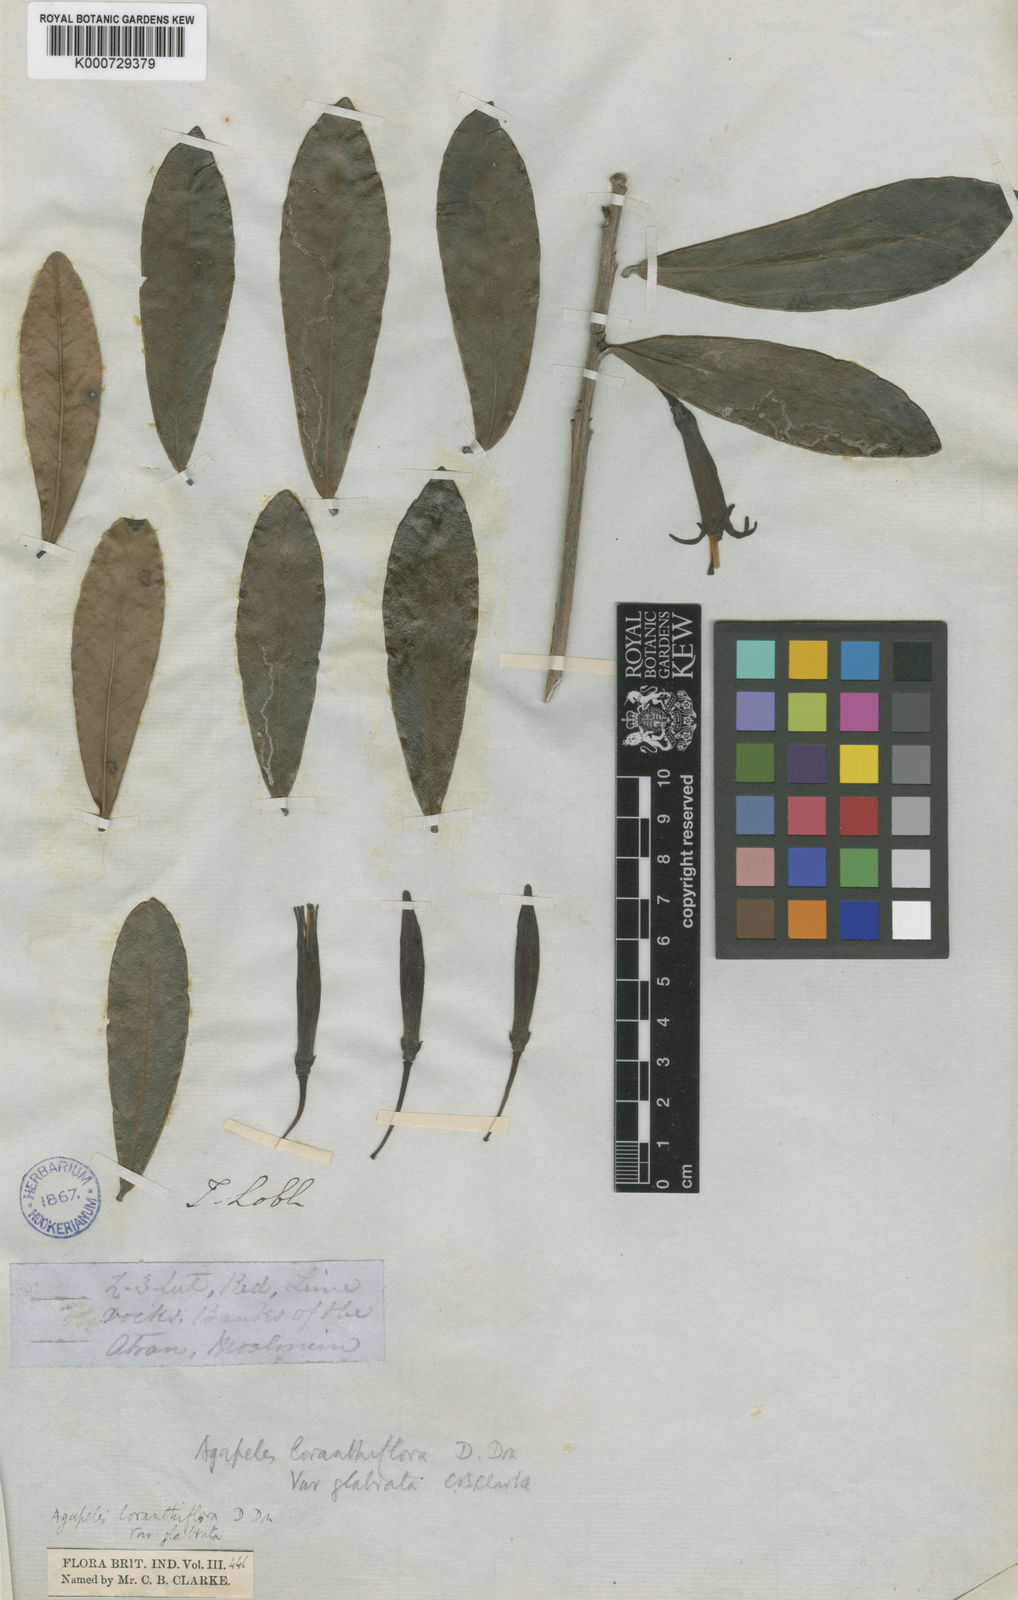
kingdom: Plantae
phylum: Tracheophyta
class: Magnoliopsida
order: Ericales
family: Ericaceae
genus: Agapetes
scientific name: Agapetes loranthiflora
